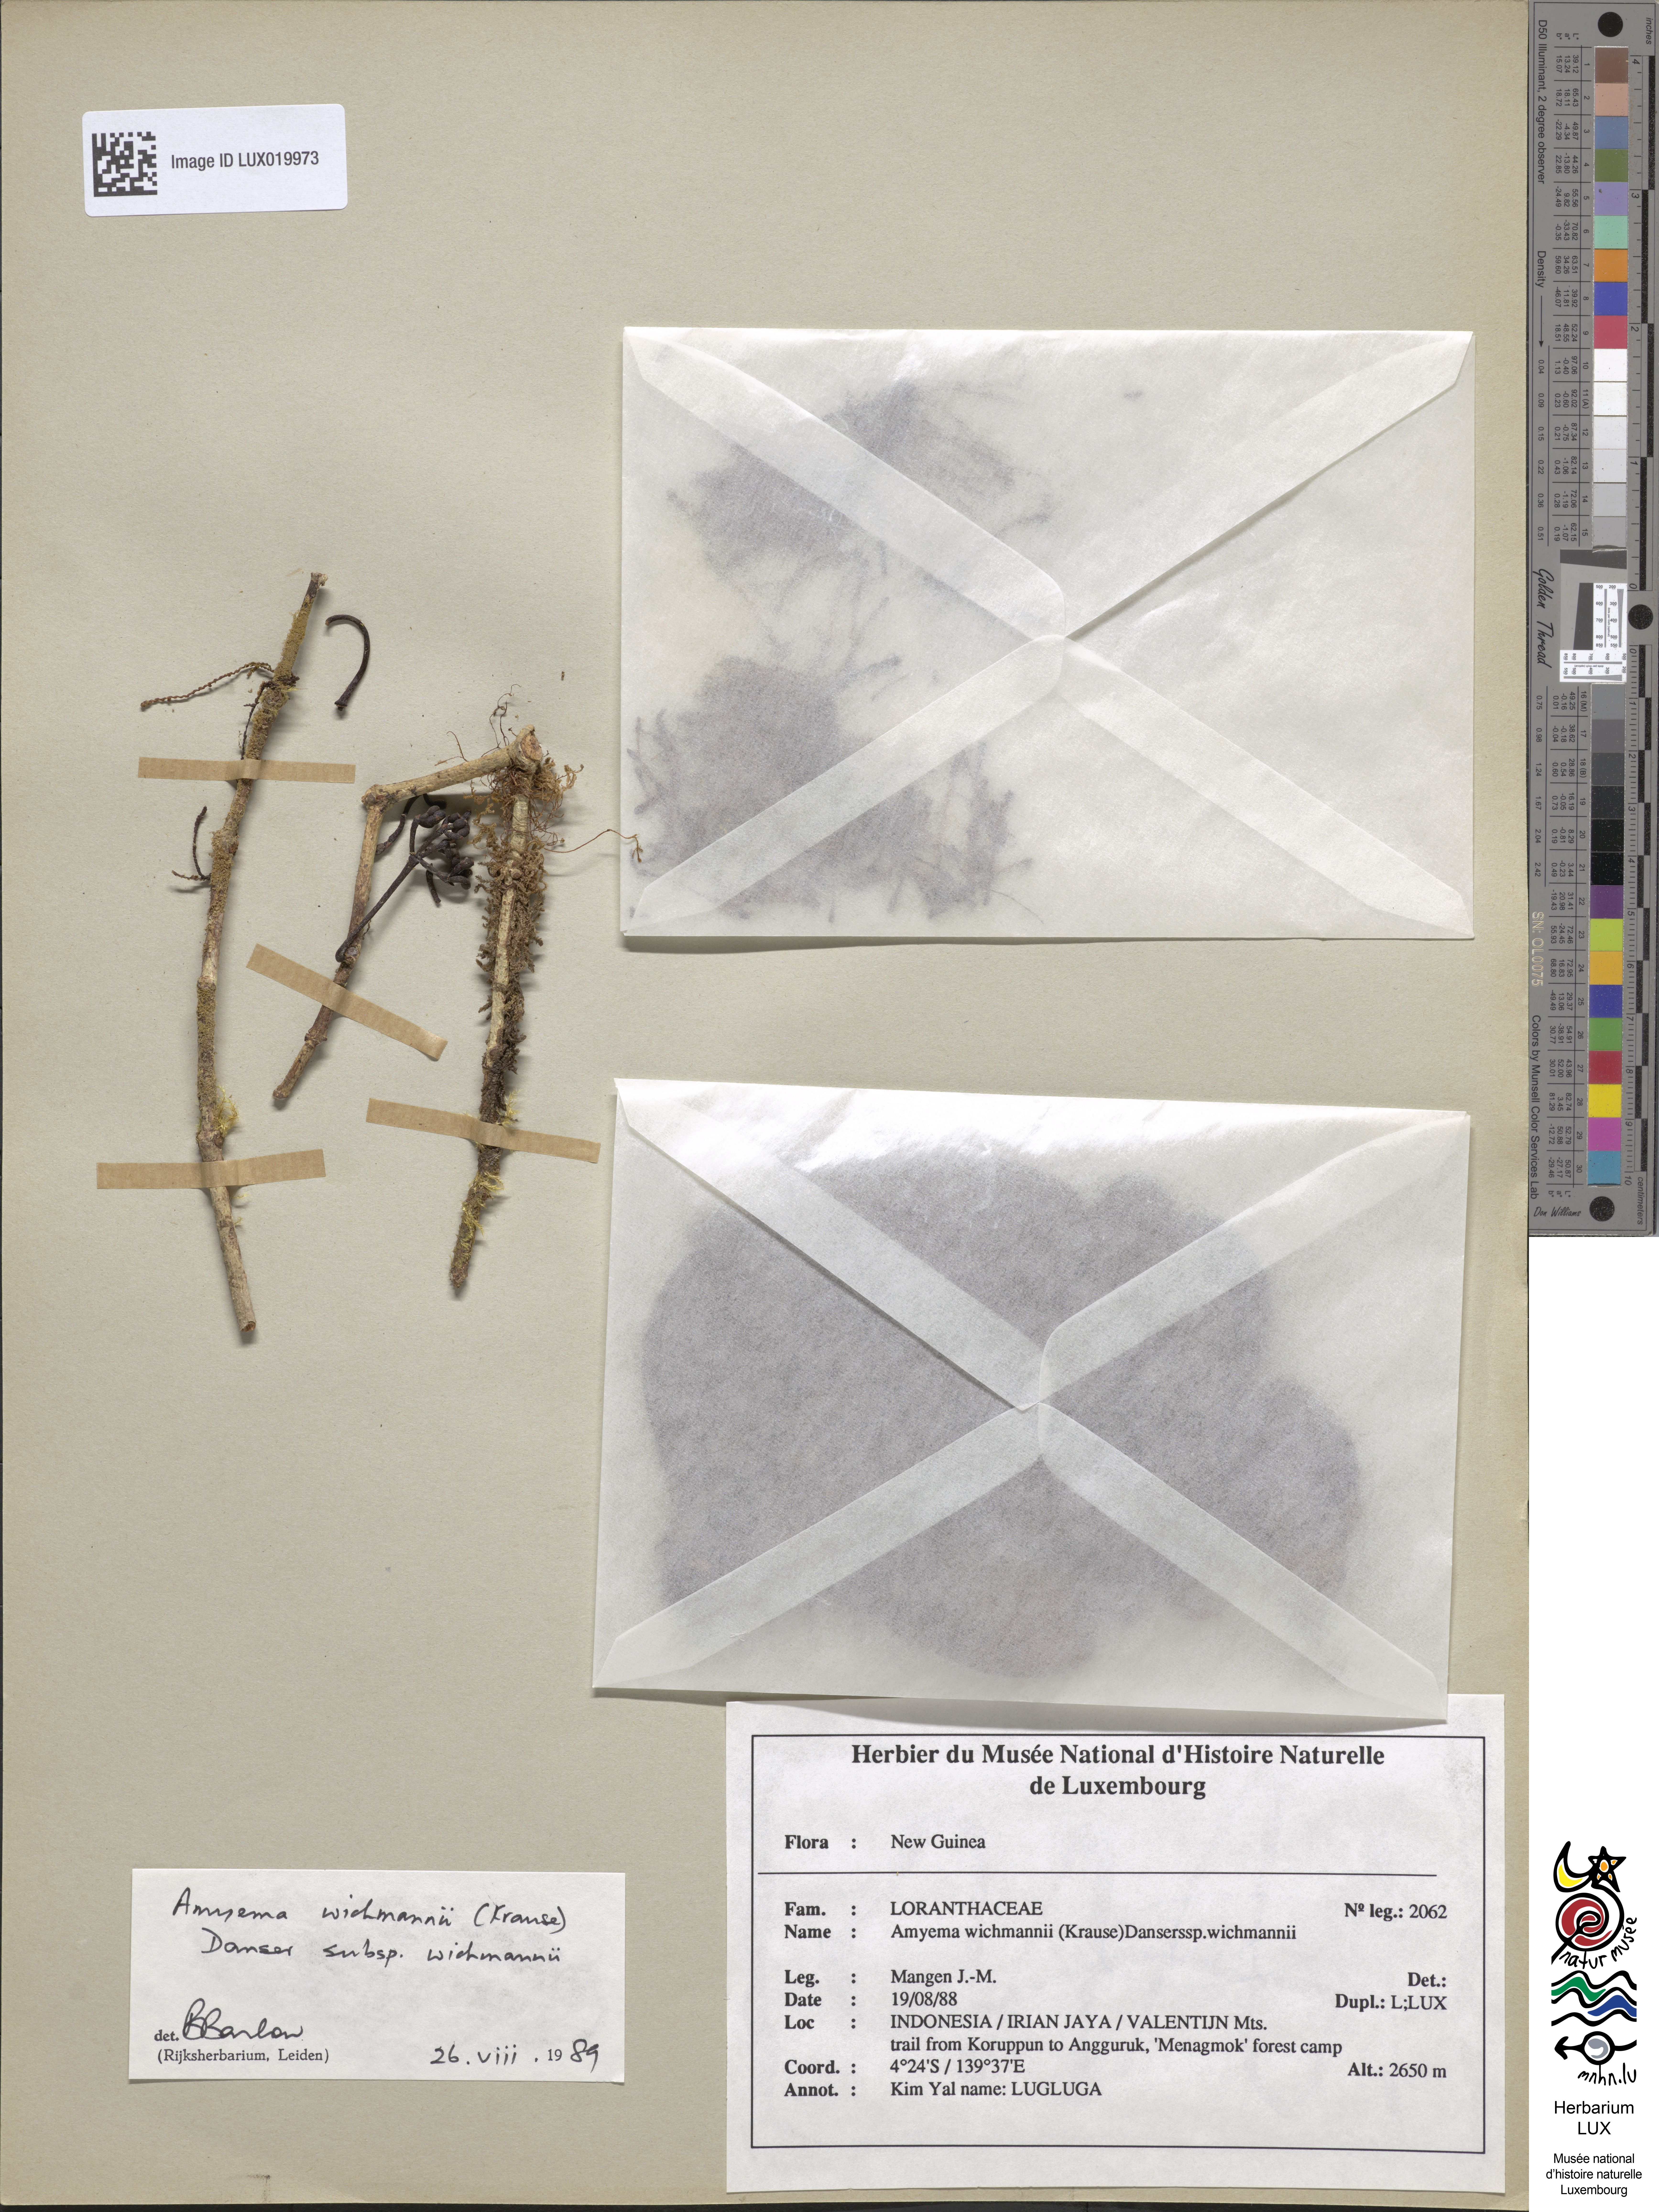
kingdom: Plantae
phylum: Tracheophyta
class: Magnoliopsida
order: Santalales
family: Loranthaceae
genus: Amyema
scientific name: Amyema wichmannii
